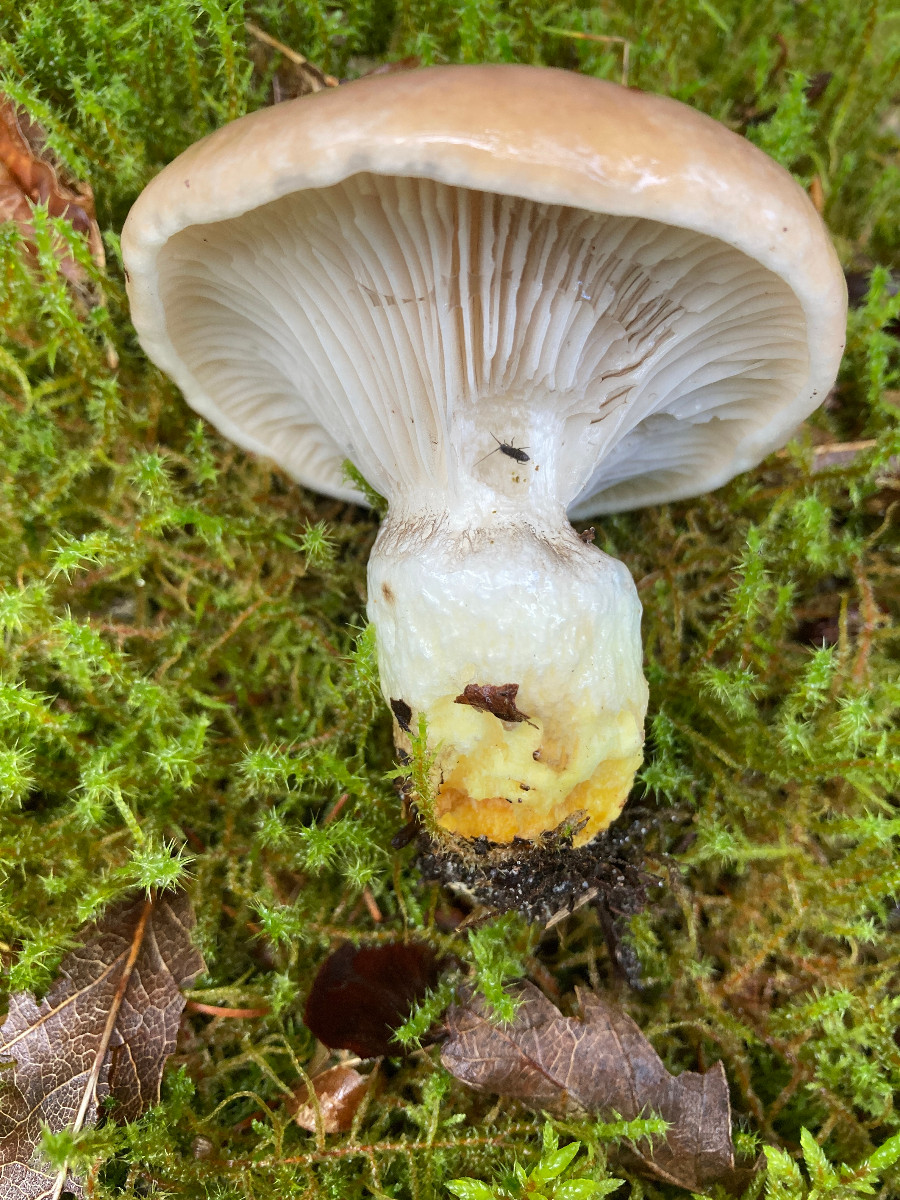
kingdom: Fungi
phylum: Basidiomycota
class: Agaricomycetes
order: Boletales
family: Gomphidiaceae
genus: Gomphidius
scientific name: Gomphidius glutinosus
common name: grå slimslør
